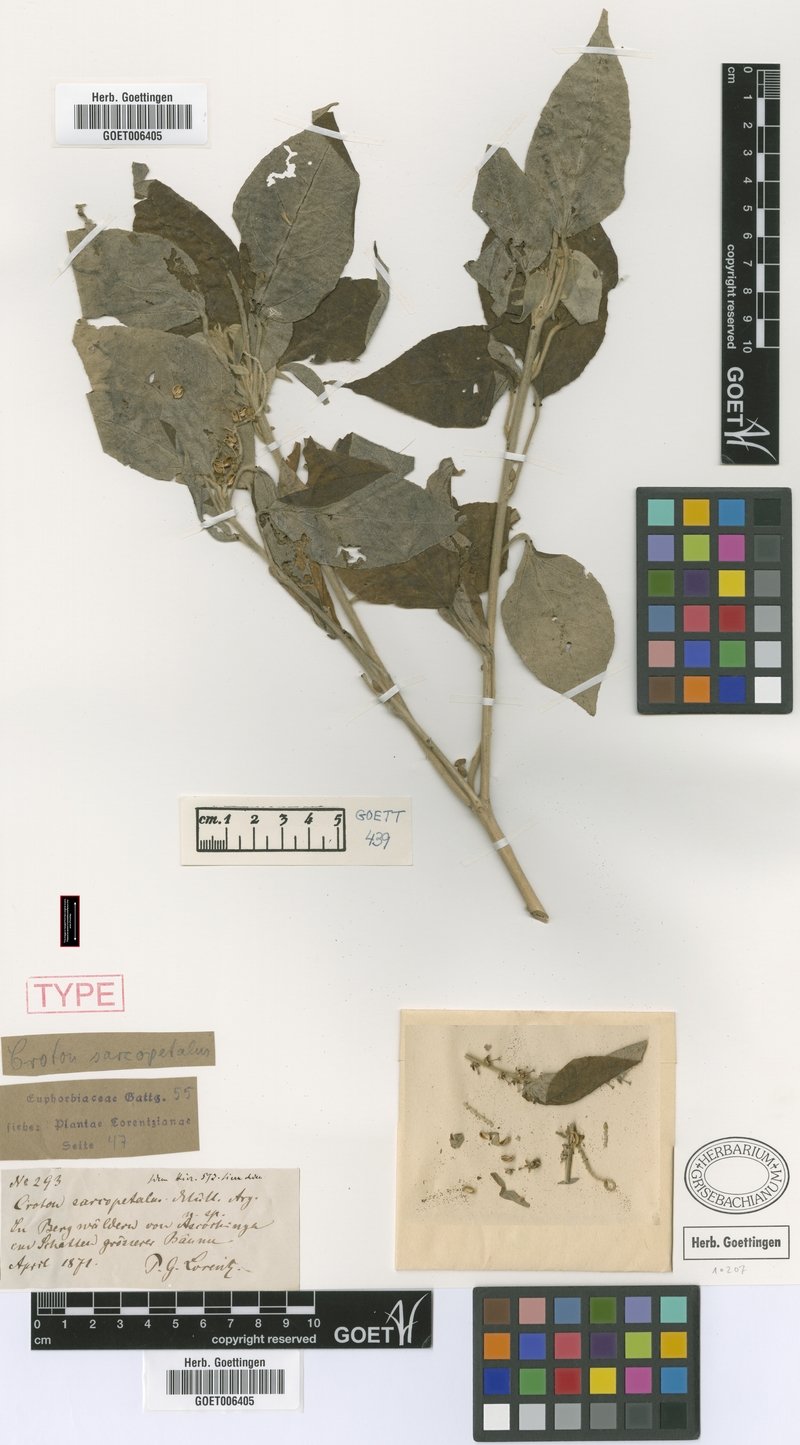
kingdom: Plantae
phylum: Tracheophyta
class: Magnoliopsida
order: Malpighiales
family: Euphorbiaceae
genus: Croton
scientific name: Croton lachnostachyus
